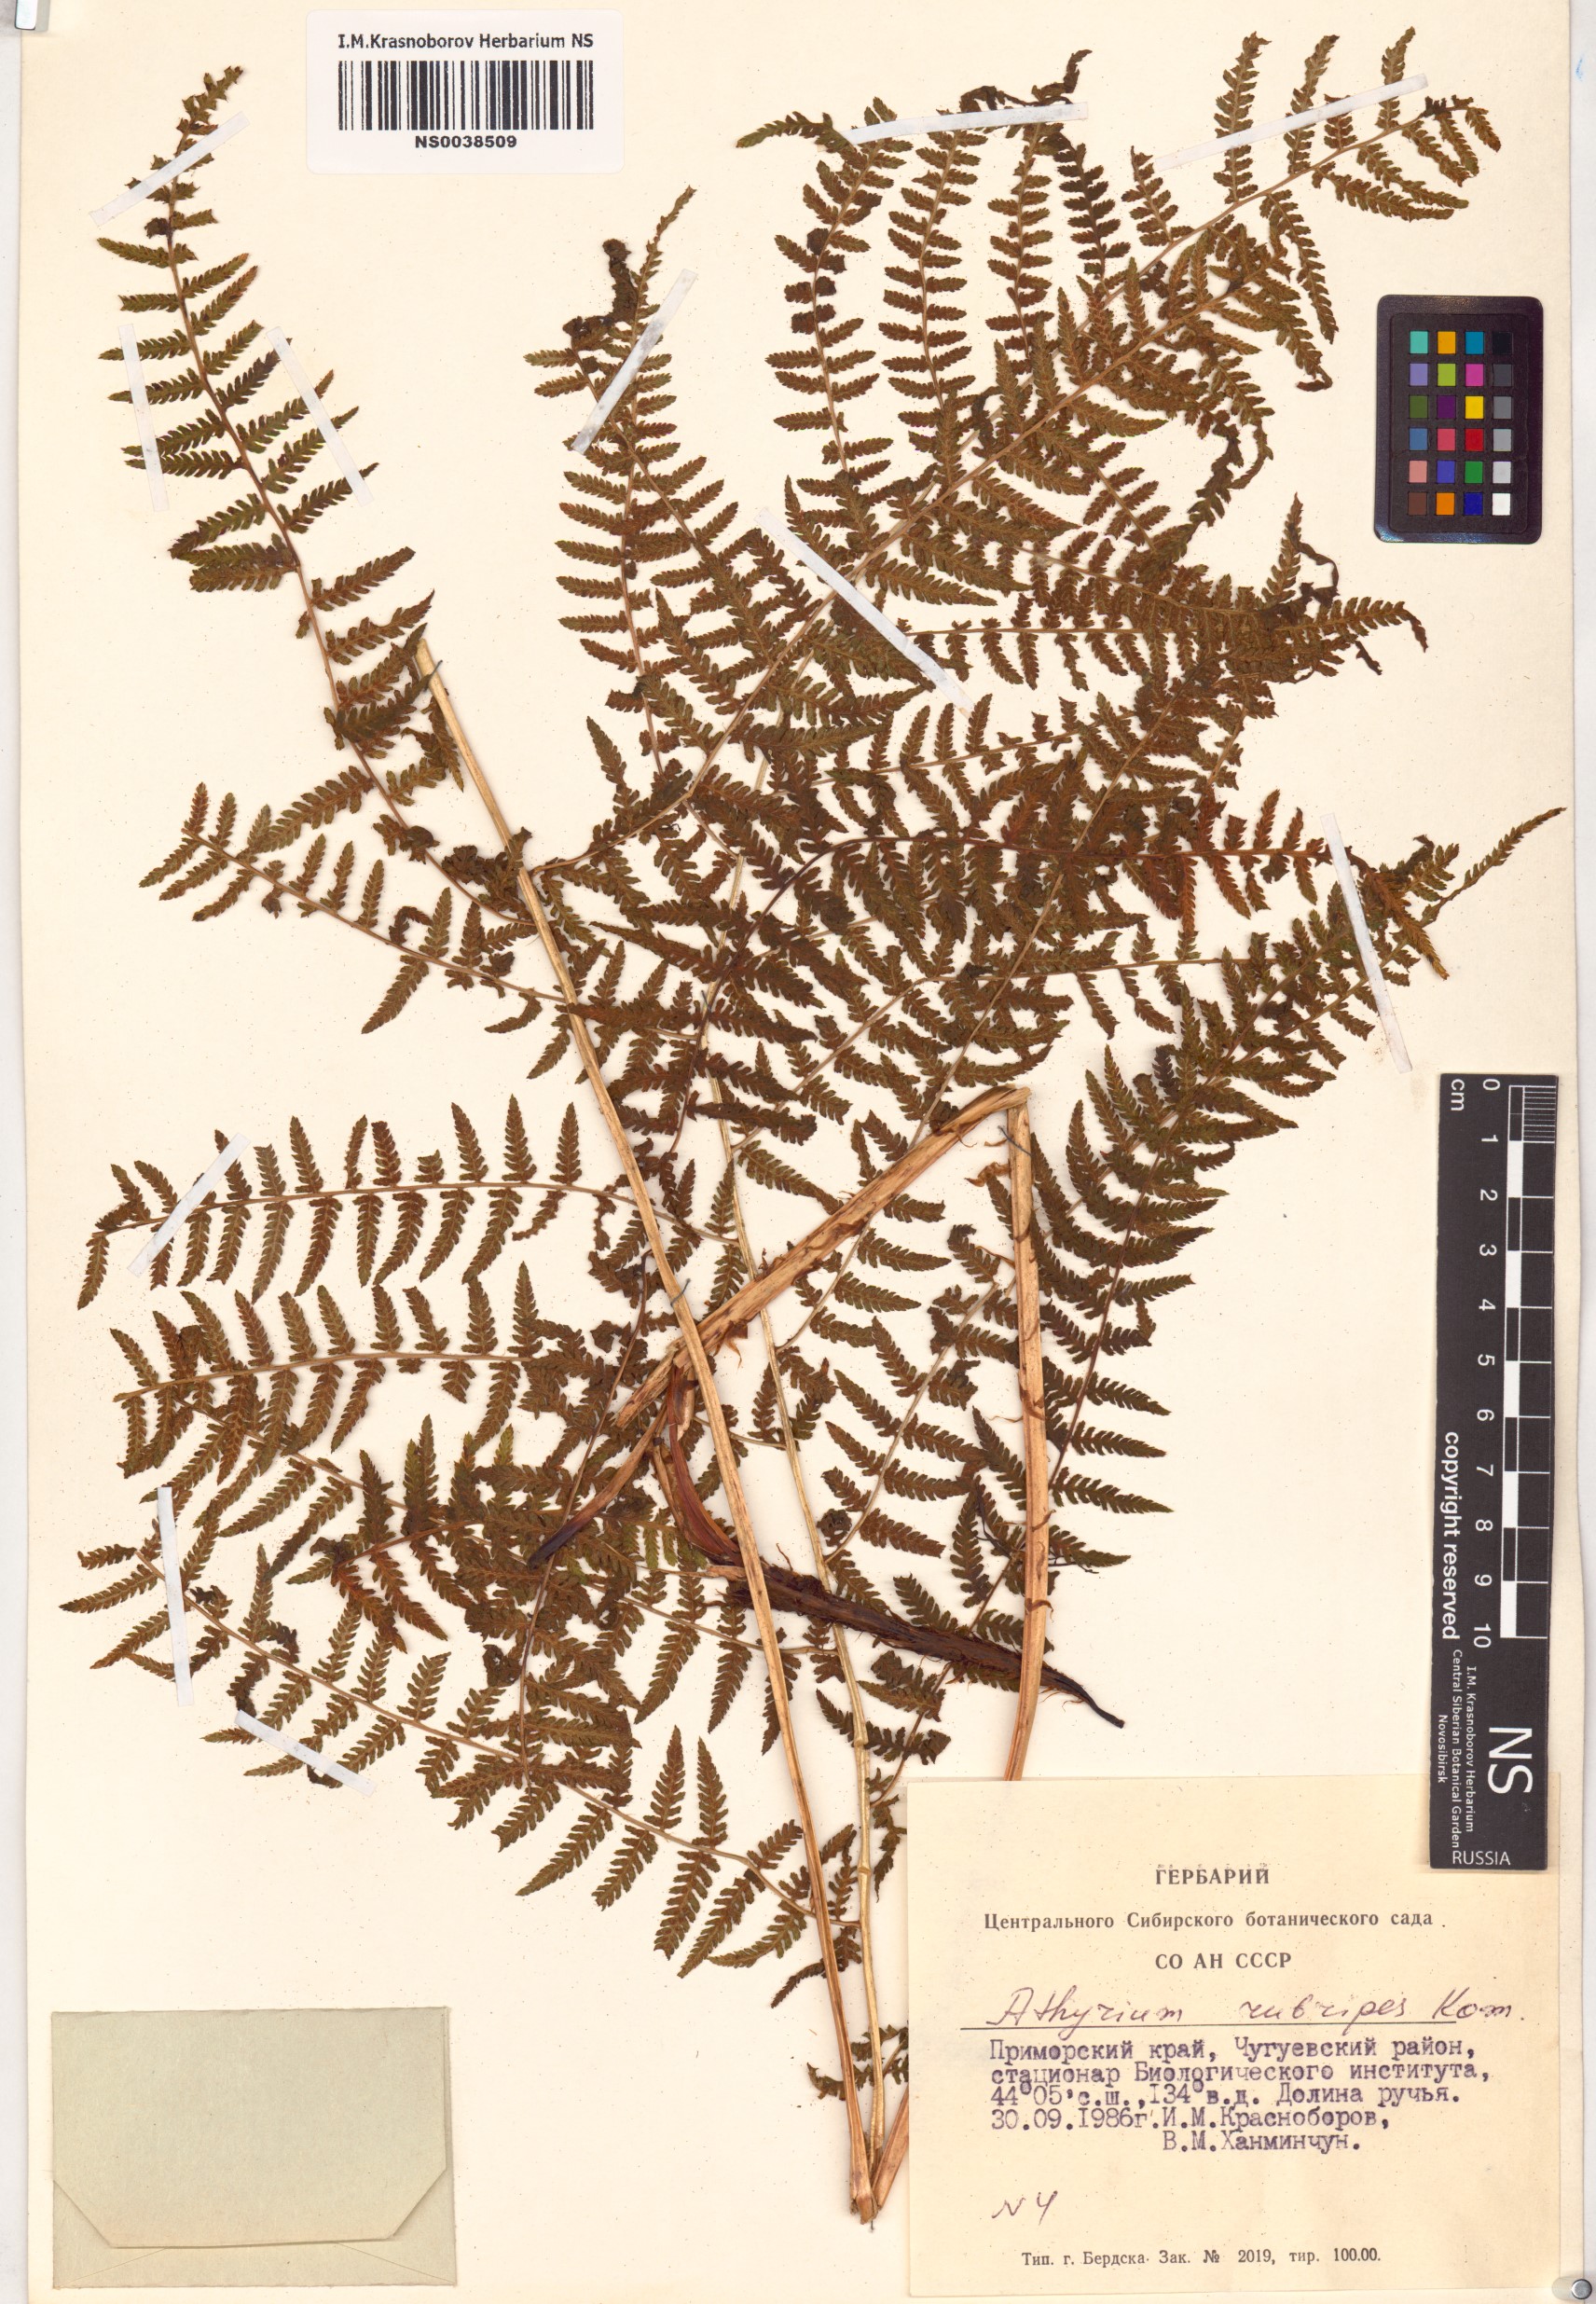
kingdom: Plantae
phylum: Tracheophyta
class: Polypodiopsida
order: Polypodiales
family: Athyriaceae
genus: Athyrium
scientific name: Athyrium rubripes
